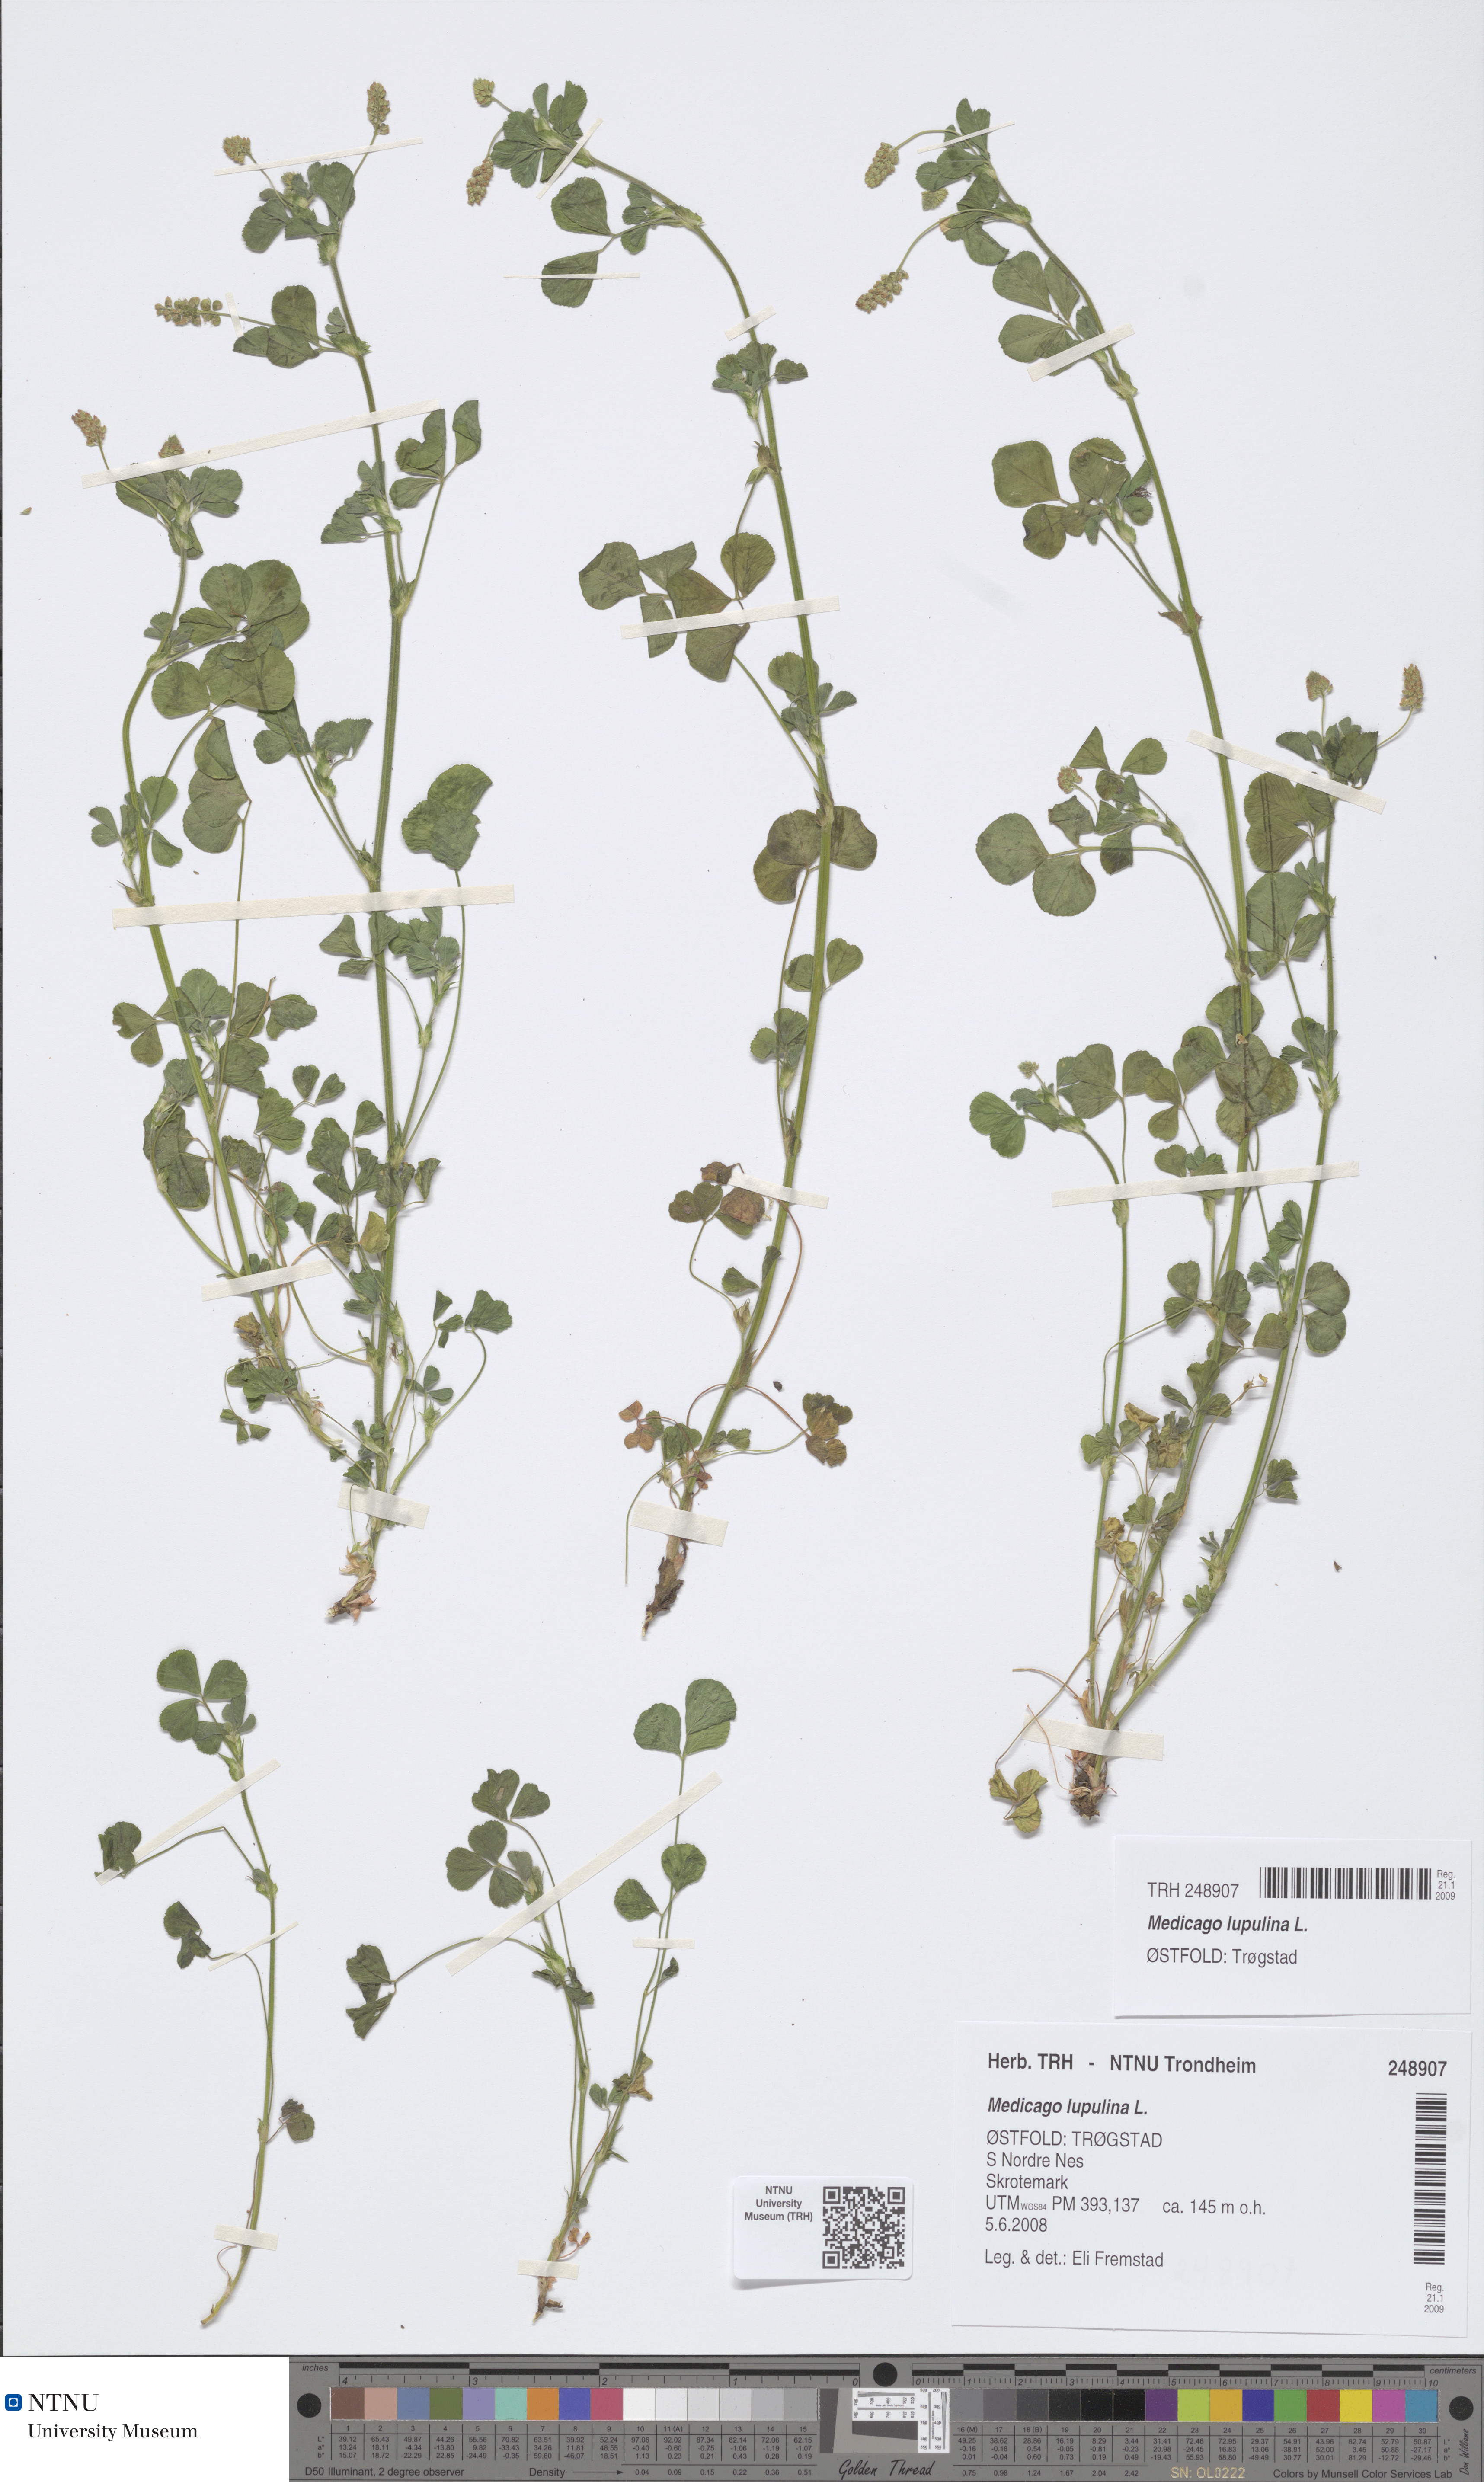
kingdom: Plantae
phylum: Tracheophyta
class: Magnoliopsida
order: Fabales
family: Fabaceae
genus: Medicago
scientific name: Medicago lupulina
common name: Black medick
